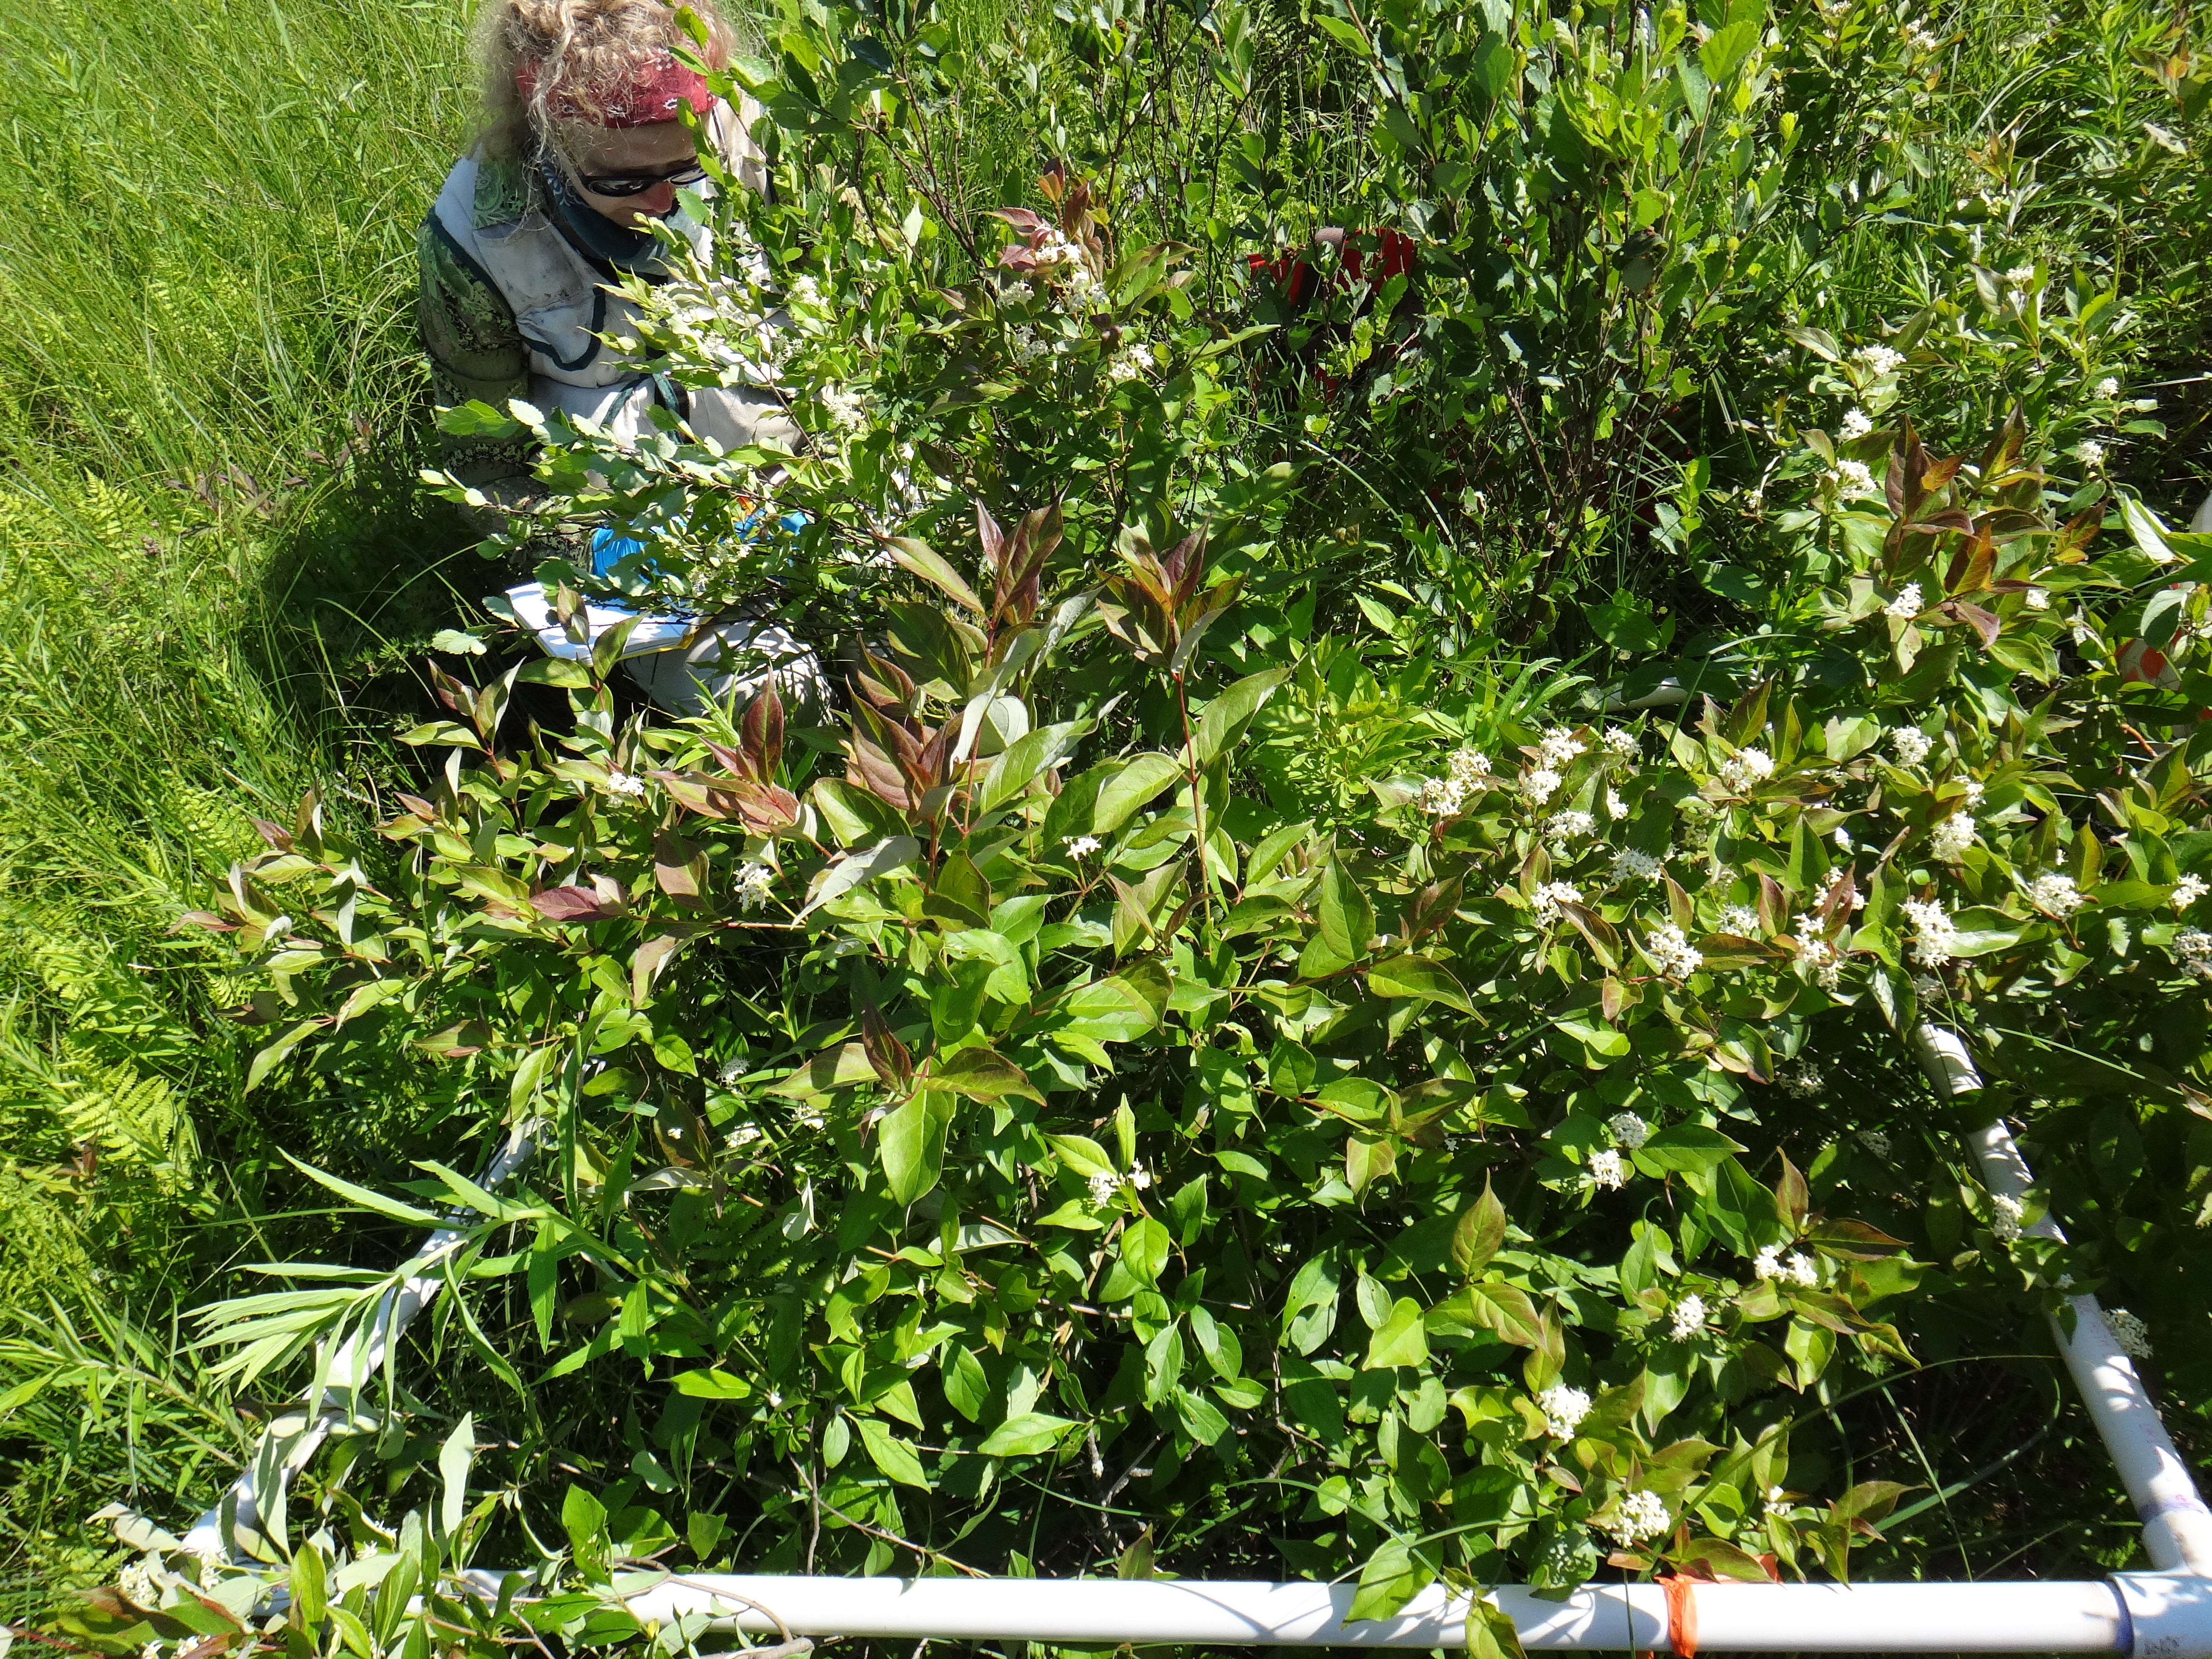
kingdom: Plantae
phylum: Tracheophyta
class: Magnoliopsida
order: Rosales
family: Rosaceae
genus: Dasiphora
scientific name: Dasiphora fruticosa
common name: Shrubby cinquefoil
